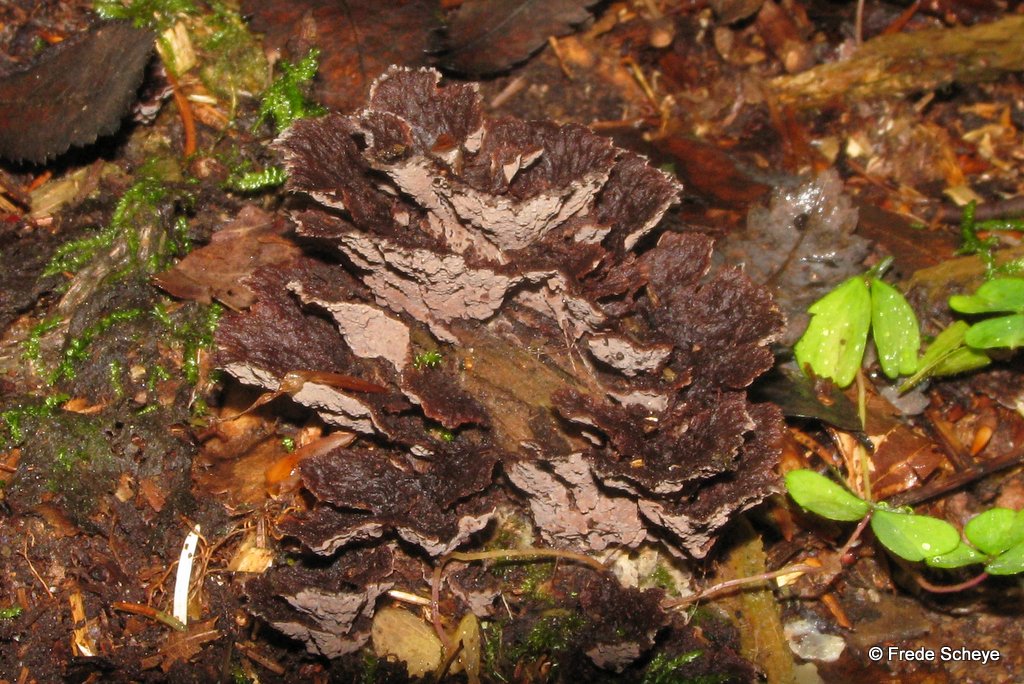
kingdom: Fungi
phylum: Basidiomycota
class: Agaricomycetes
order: Thelephorales
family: Thelephoraceae
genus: Thelephora
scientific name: Thelephora terrestris
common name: fliget frynsesvamp
